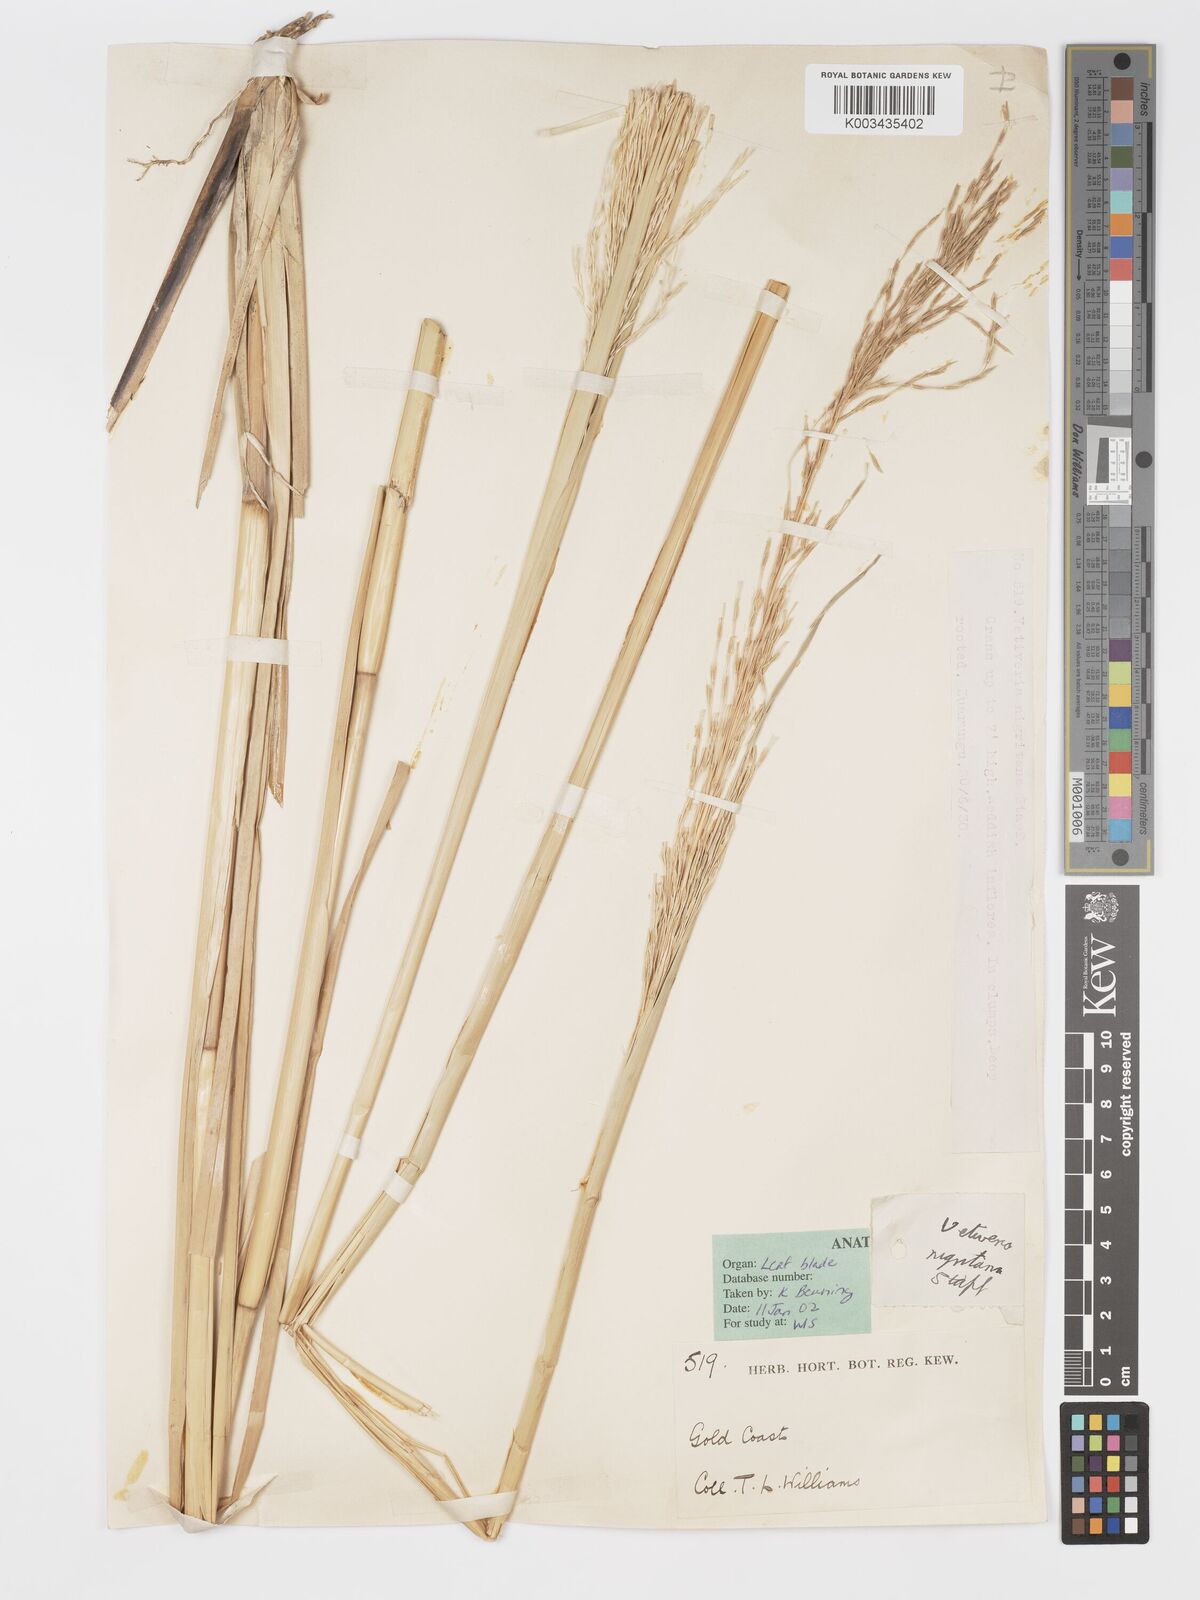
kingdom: Plantae
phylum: Tracheophyta
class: Liliopsida
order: Poales
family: Poaceae
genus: Chrysopogon
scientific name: Chrysopogon nigritanus
